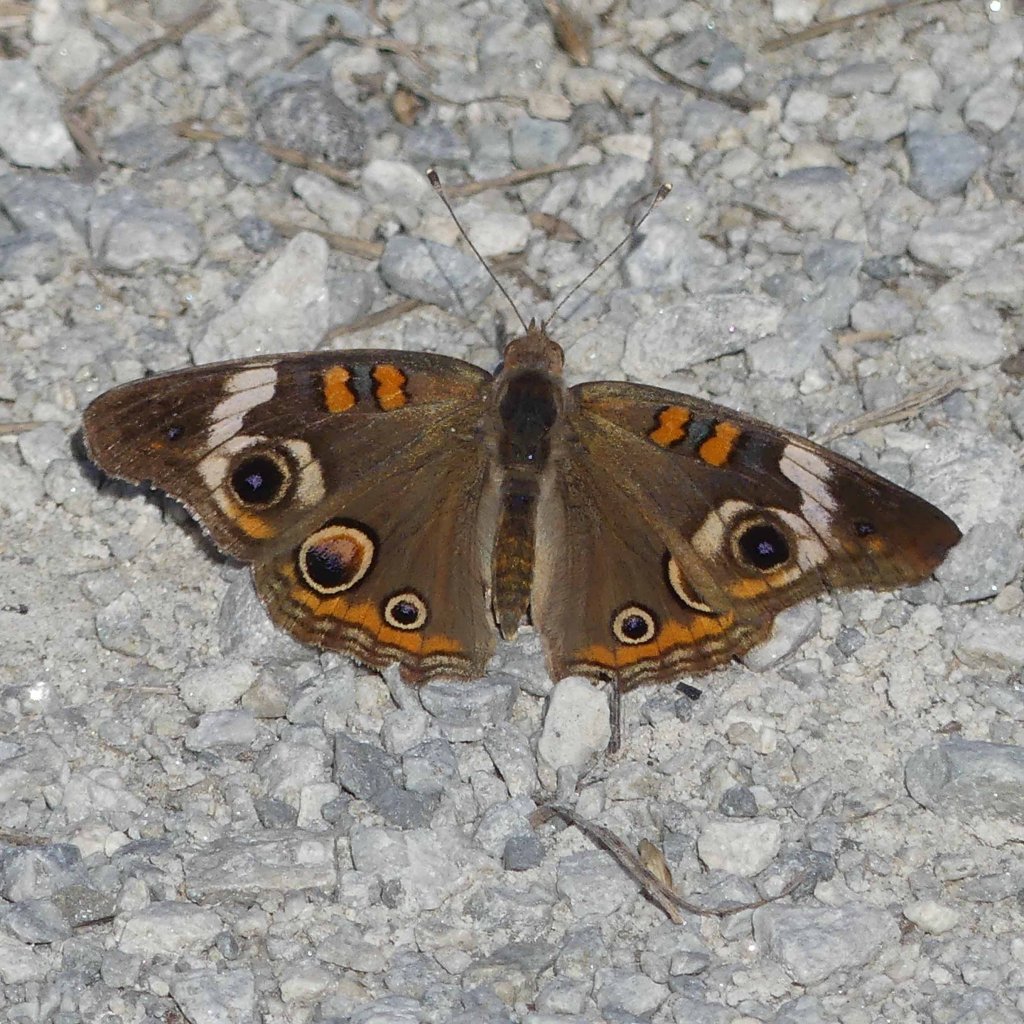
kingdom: Animalia
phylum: Arthropoda
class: Insecta
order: Lepidoptera
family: Nymphalidae
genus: Junonia
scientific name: Junonia coenia
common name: Common Buckeye
